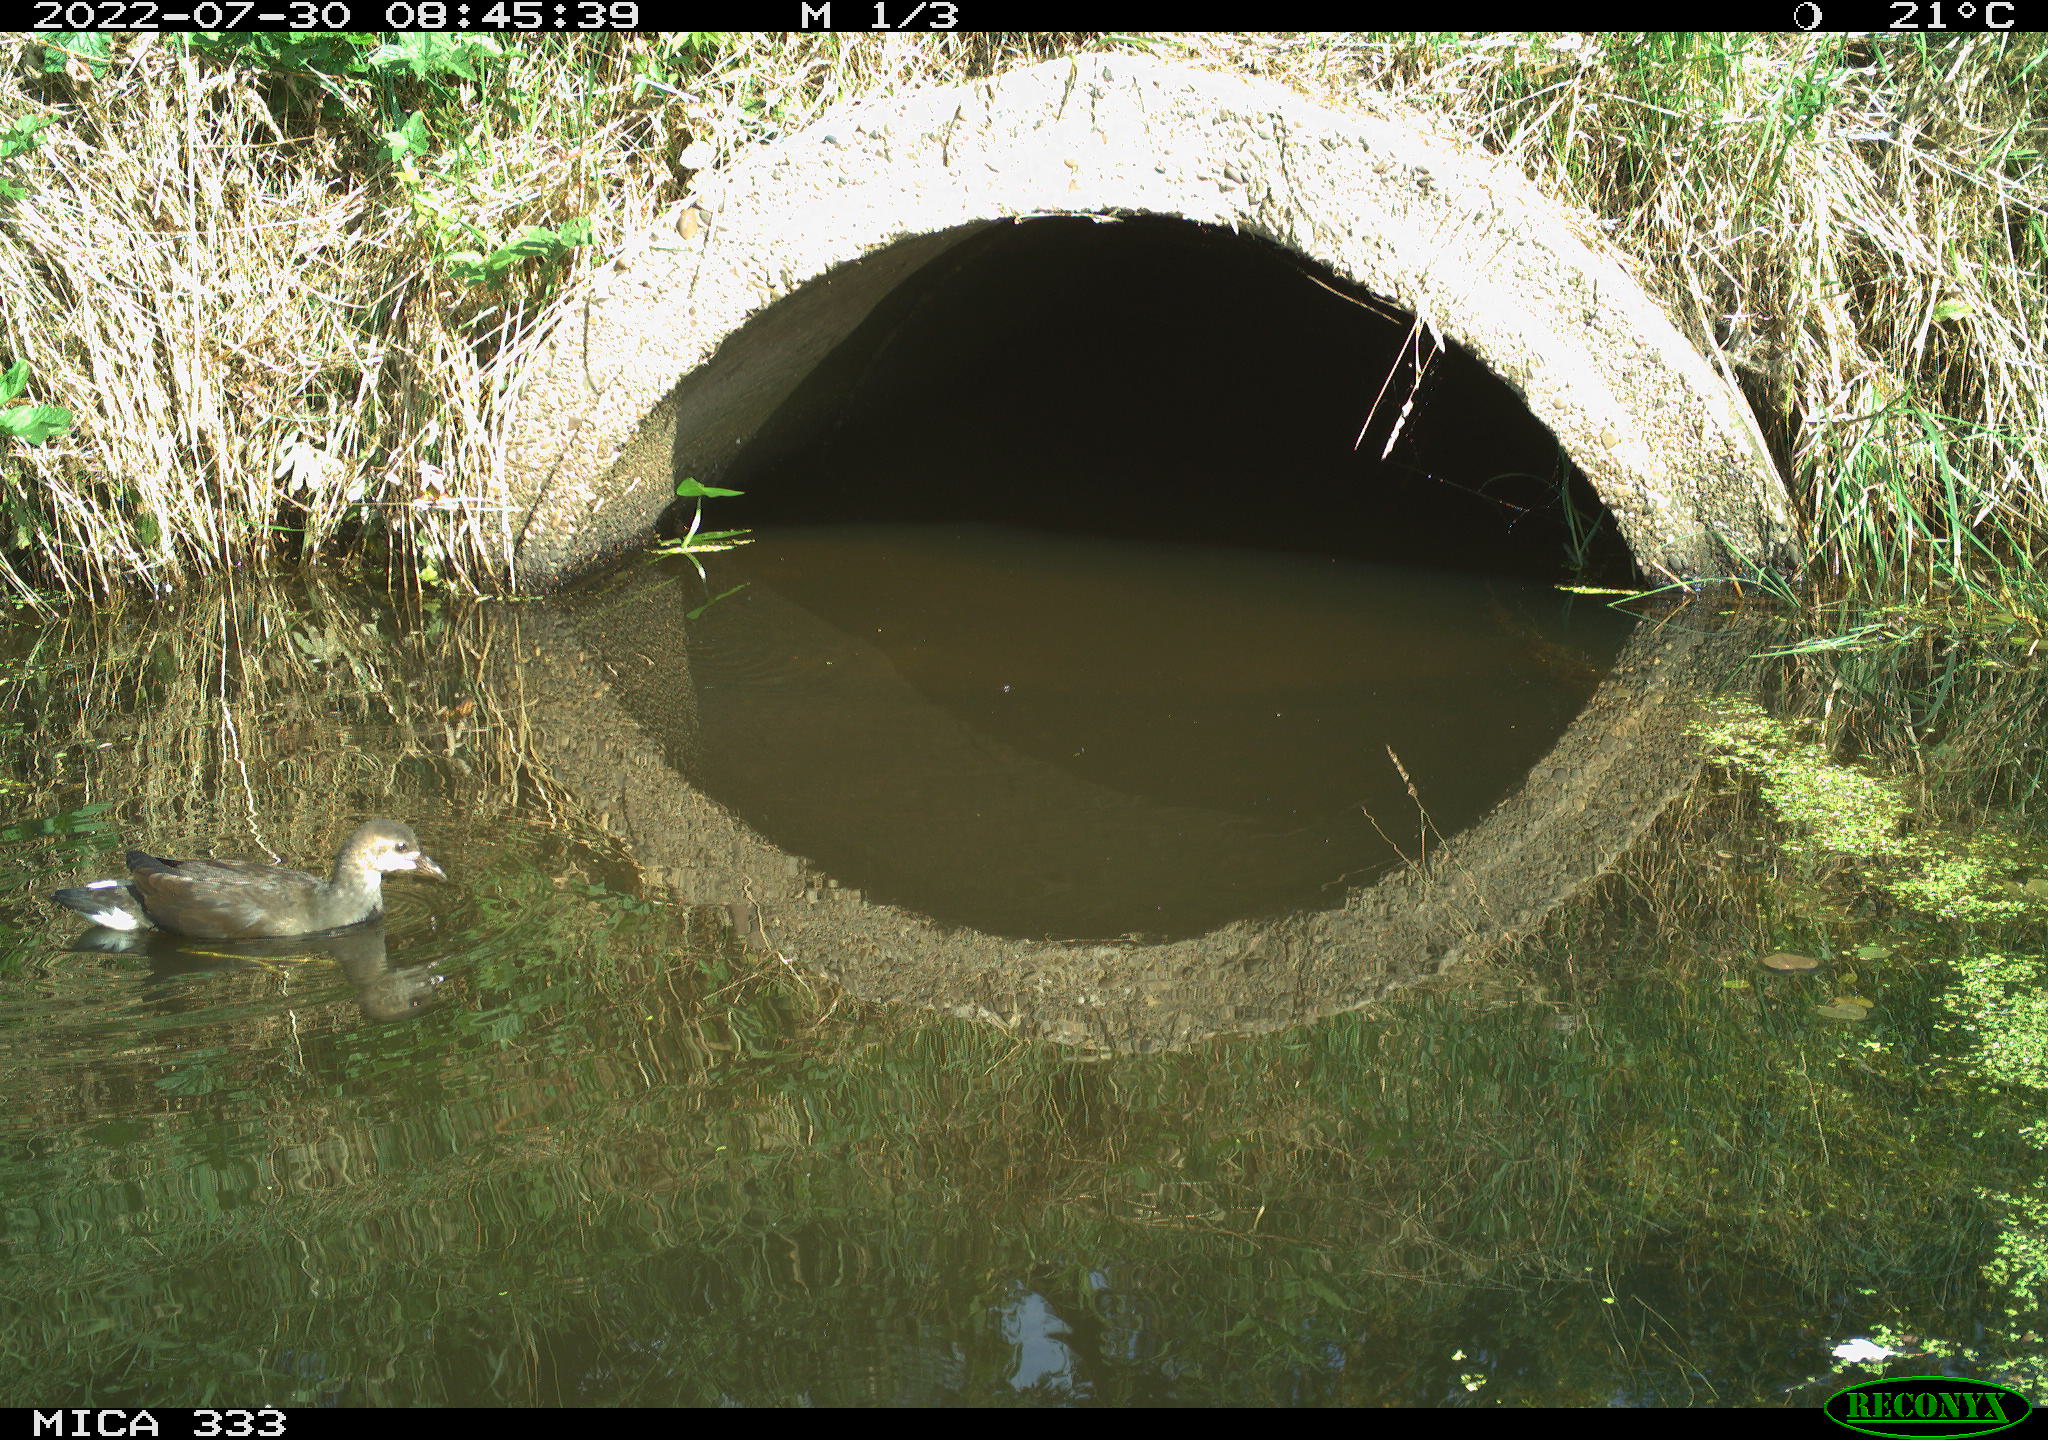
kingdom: Animalia
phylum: Chordata
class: Aves
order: Gruiformes
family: Rallidae
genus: Gallinula
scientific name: Gallinula chloropus
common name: Common moorhen
